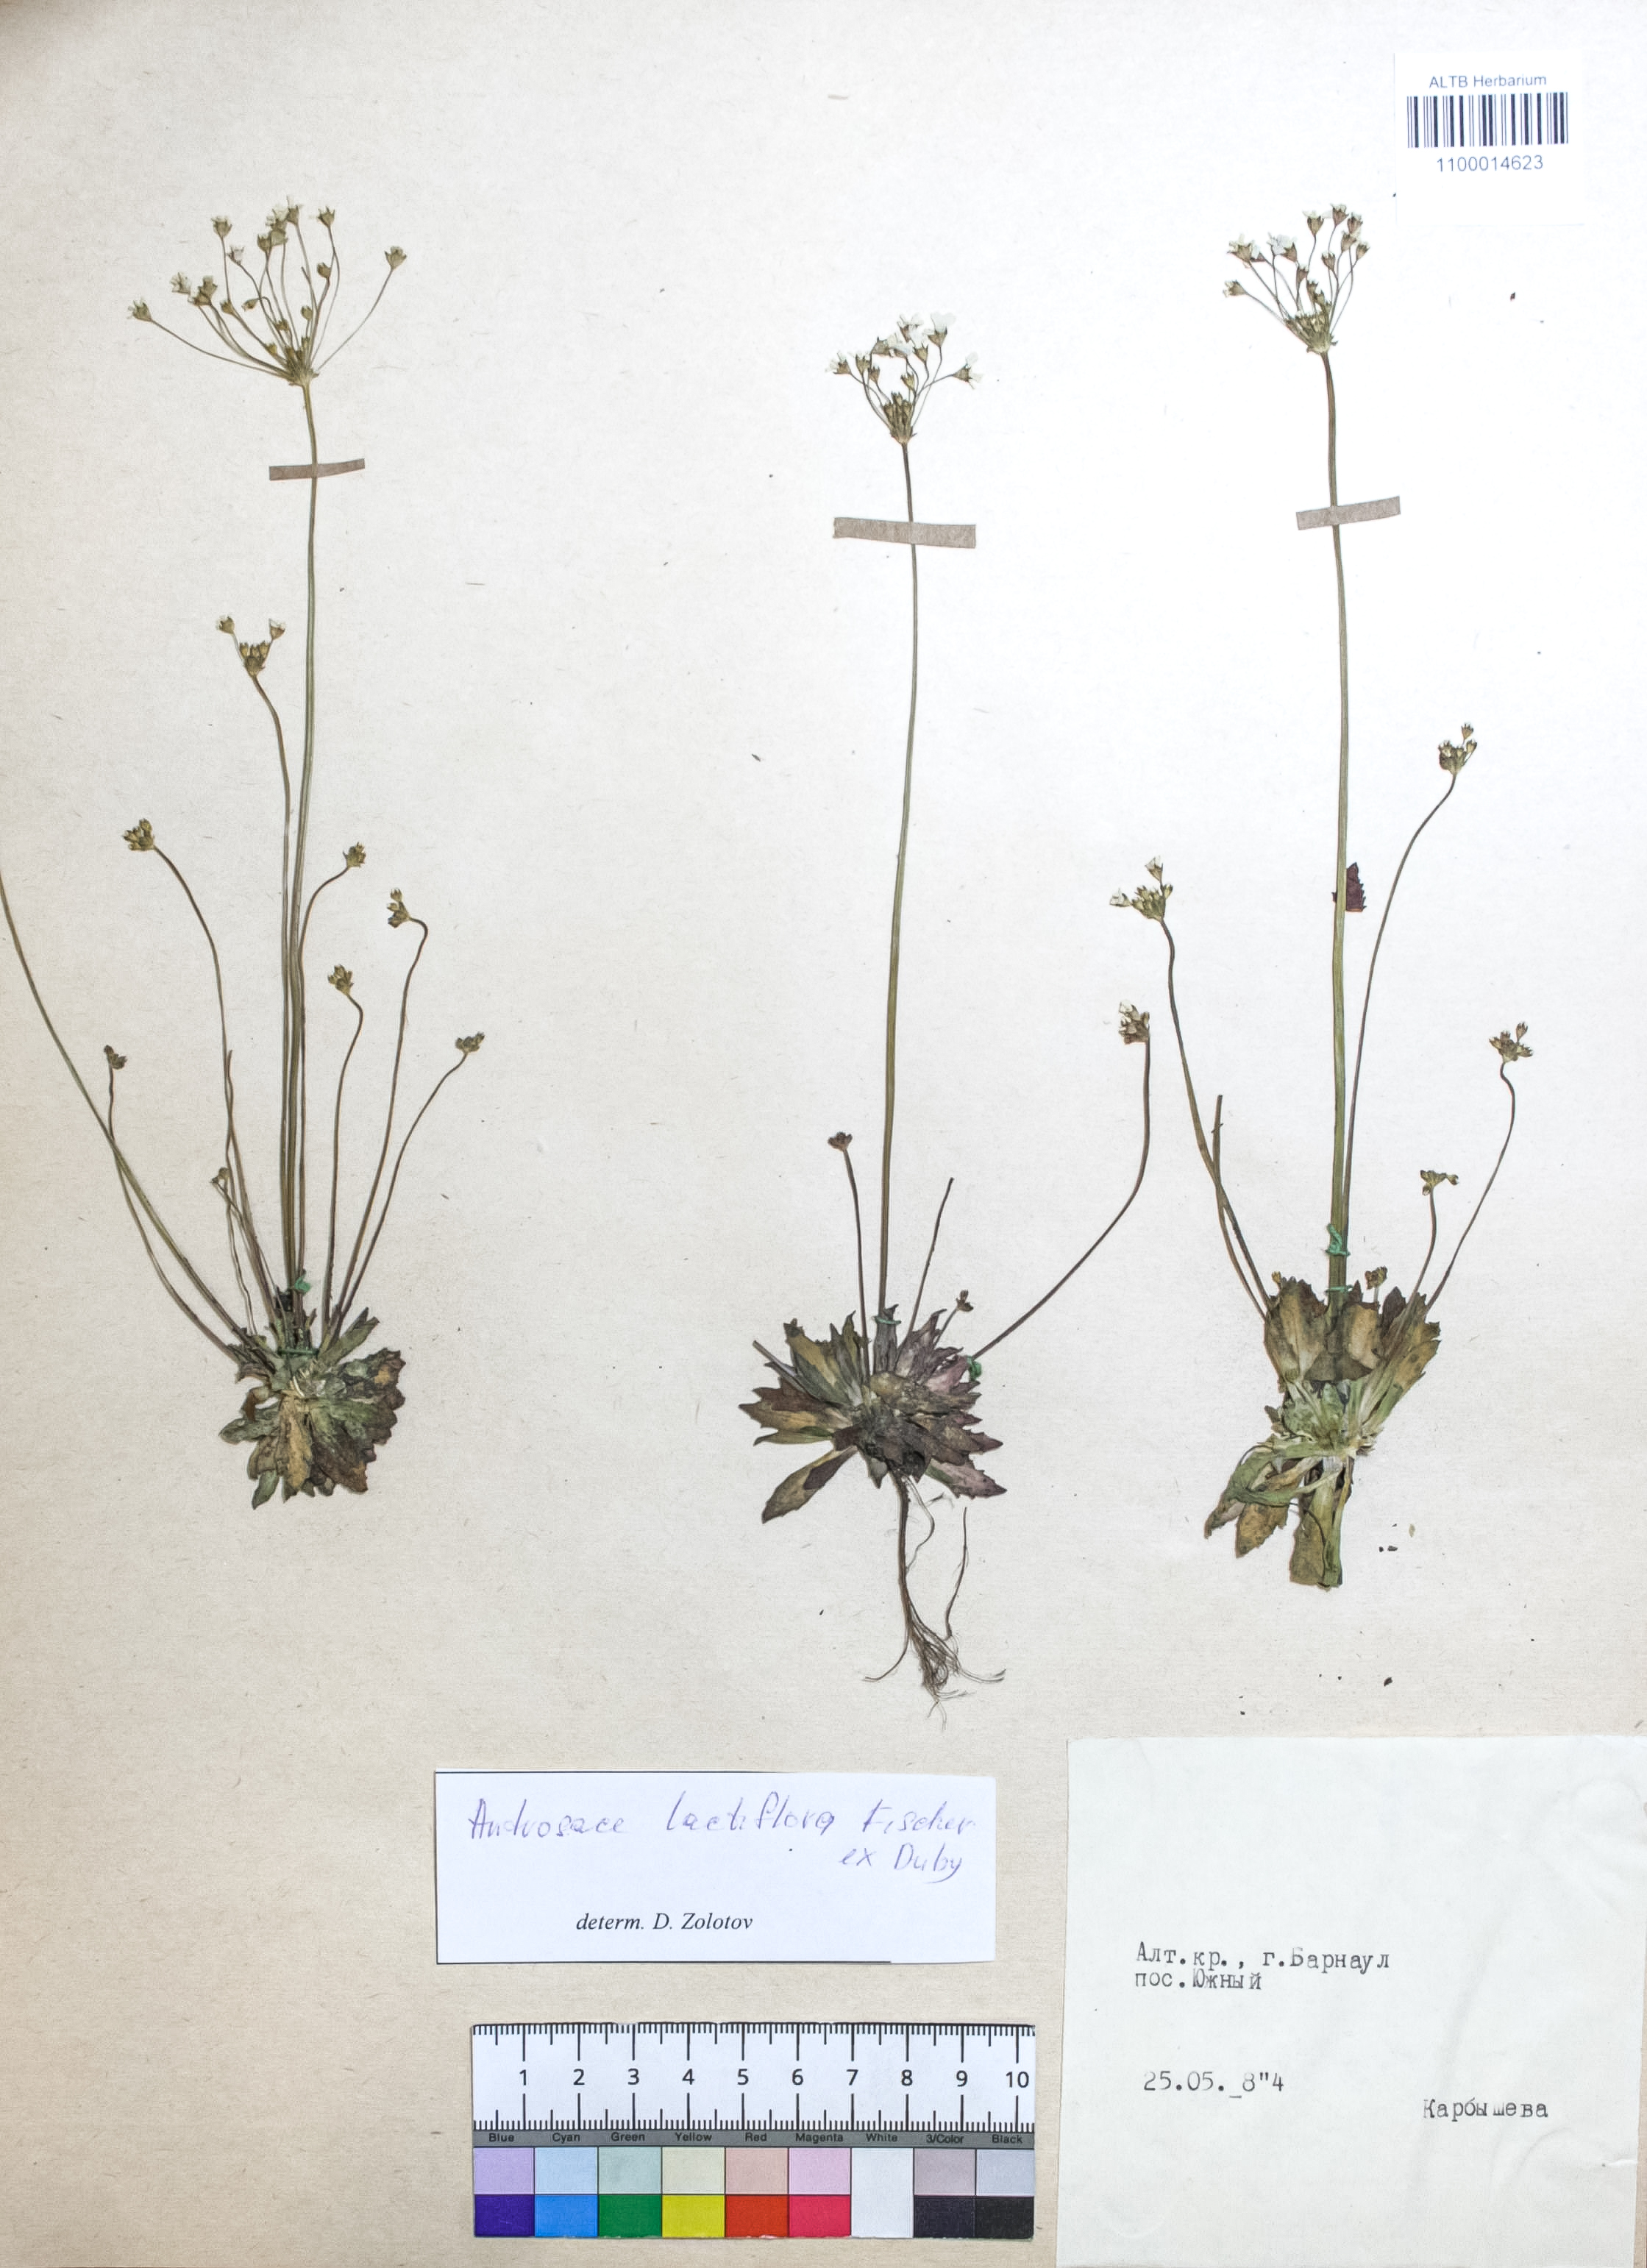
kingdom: Plantae
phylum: Tracheophyta
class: Magnoliopsida
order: Ericales
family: Primulaceae
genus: Androsace
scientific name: Androsace lactiflora
